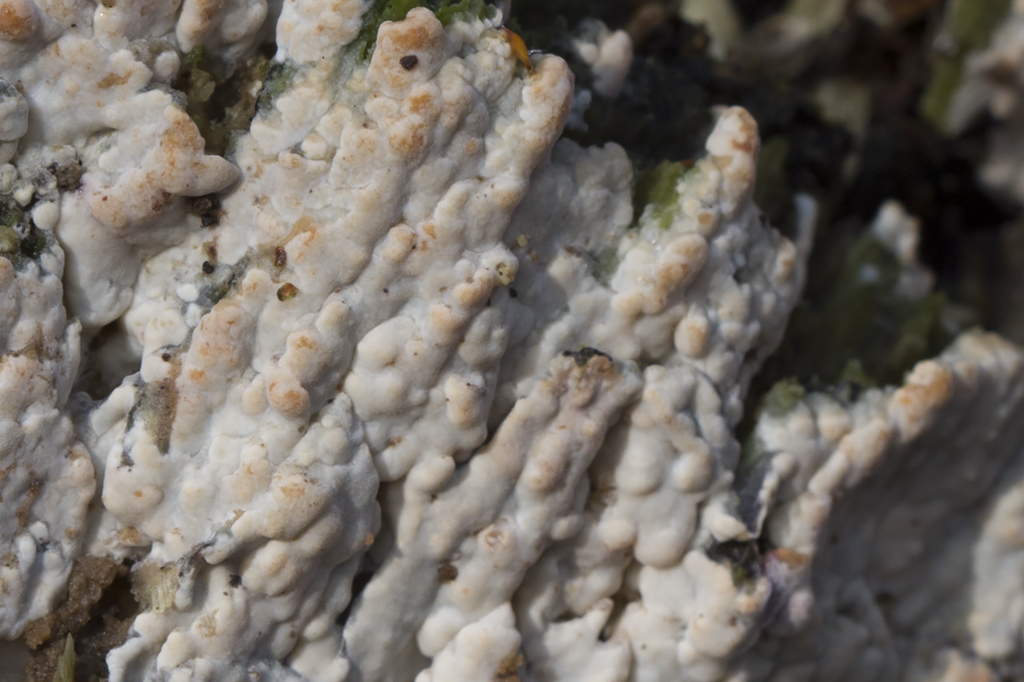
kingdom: Fungi
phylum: Basidiomycota
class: Agaricomycetes
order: Russulales
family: Peniophoraceae
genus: Gloiothele
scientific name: Gloiothele lactescens
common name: bitter olieskind
